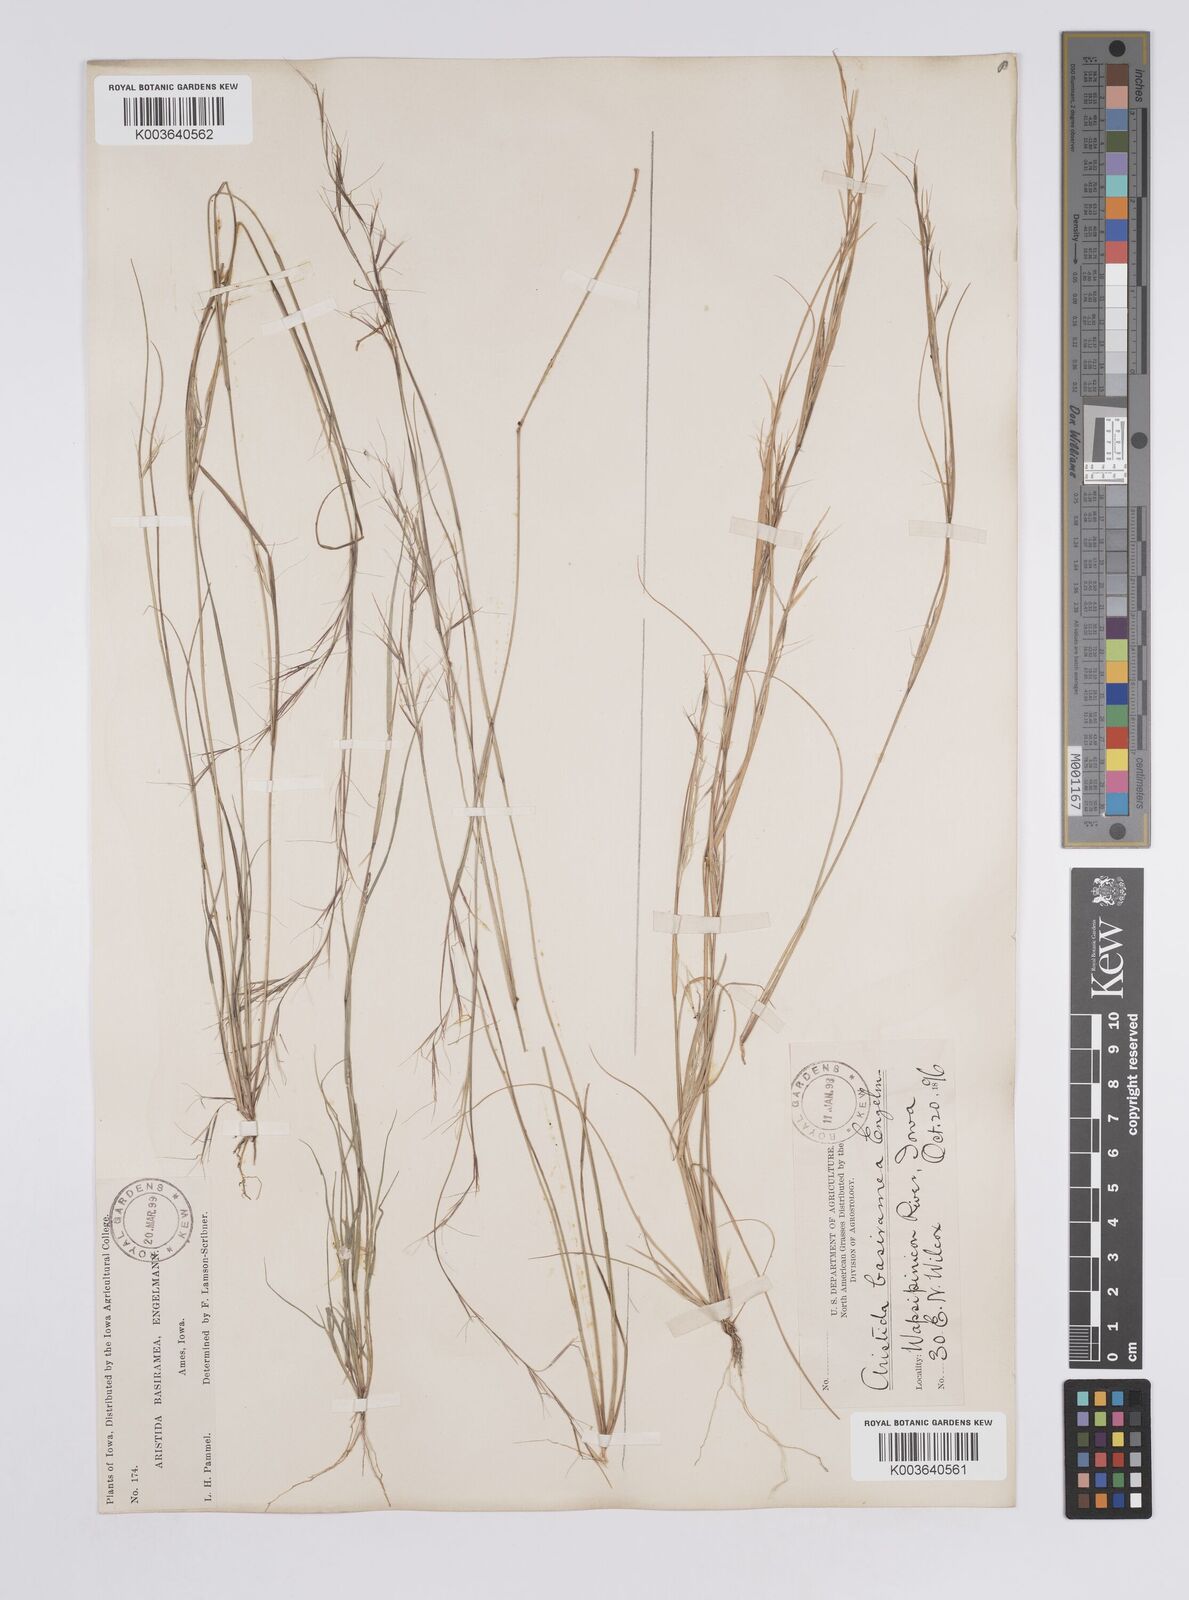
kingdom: Plantae
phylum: Tracheophyta
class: Liliopsida
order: Poales
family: Poaceae
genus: Aristida
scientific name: Aristida basiramea
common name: Forked three-awned grass
